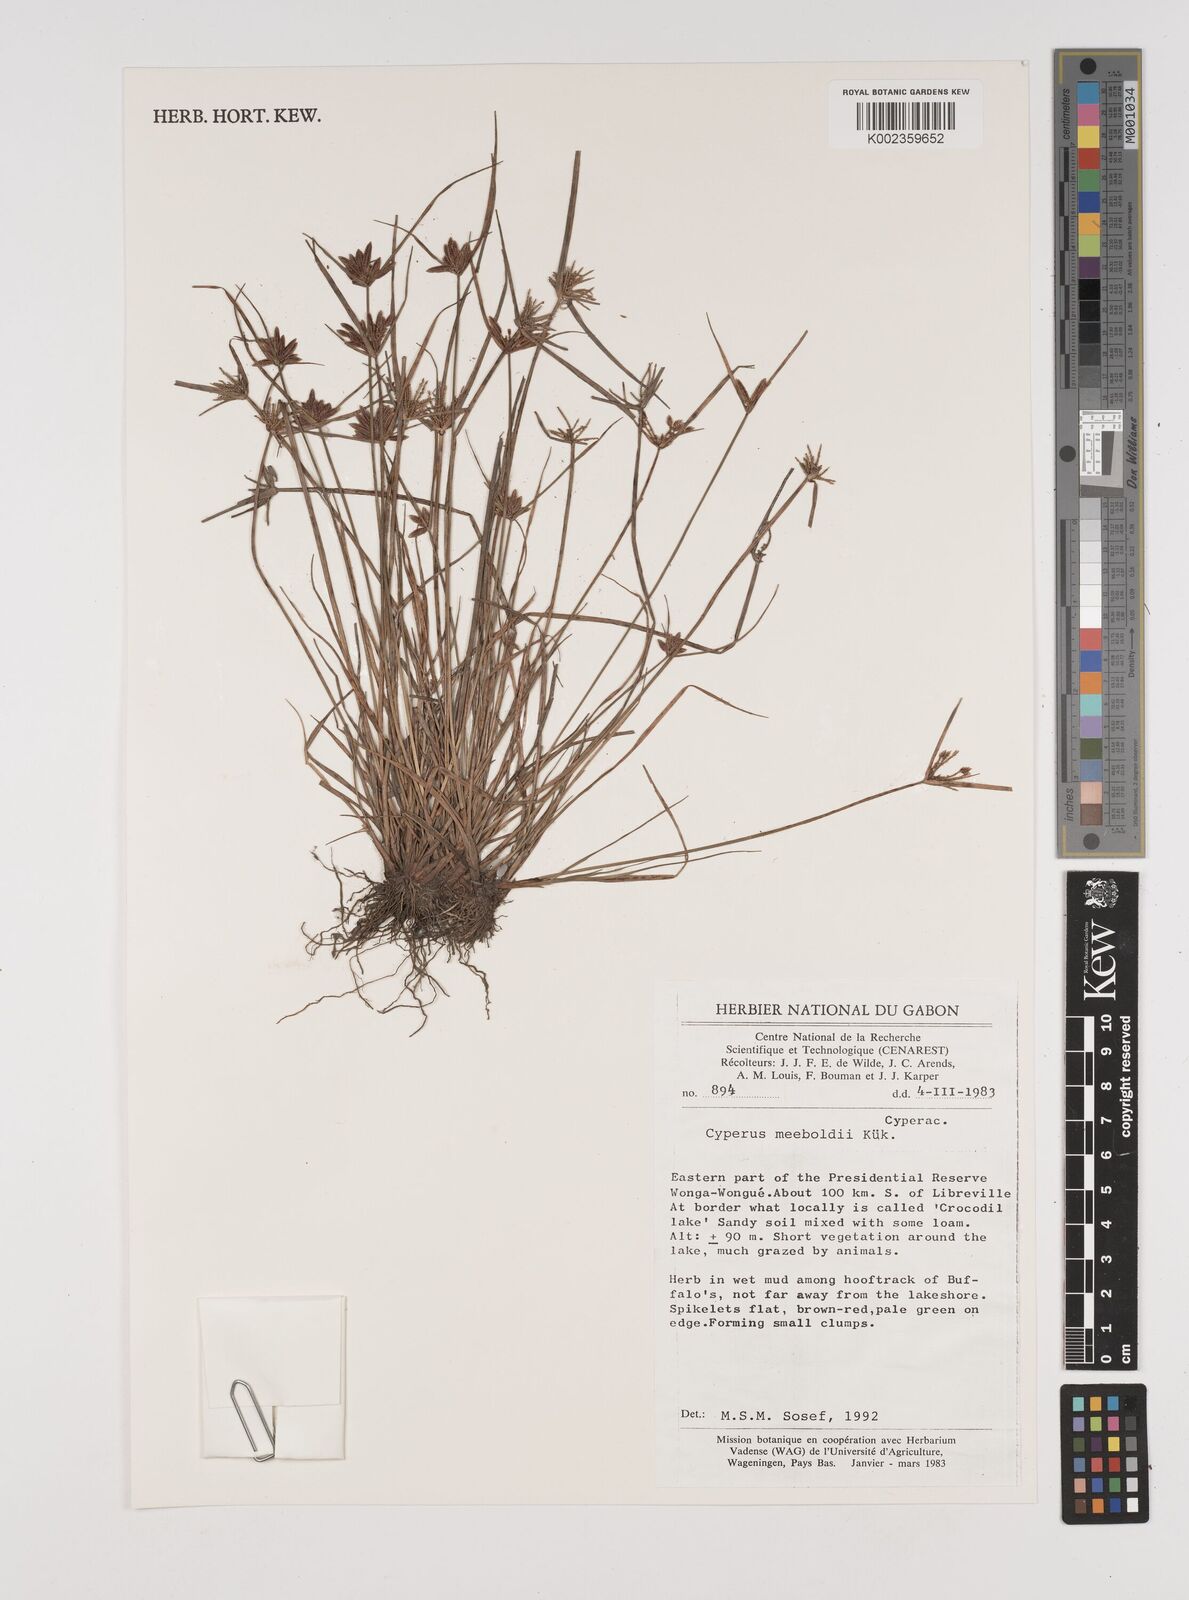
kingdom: Plantae
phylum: Tracheophyta
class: Liliopsida
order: Poales
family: Cyperaceae
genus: Cyperus
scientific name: Cyperus meeboldii
